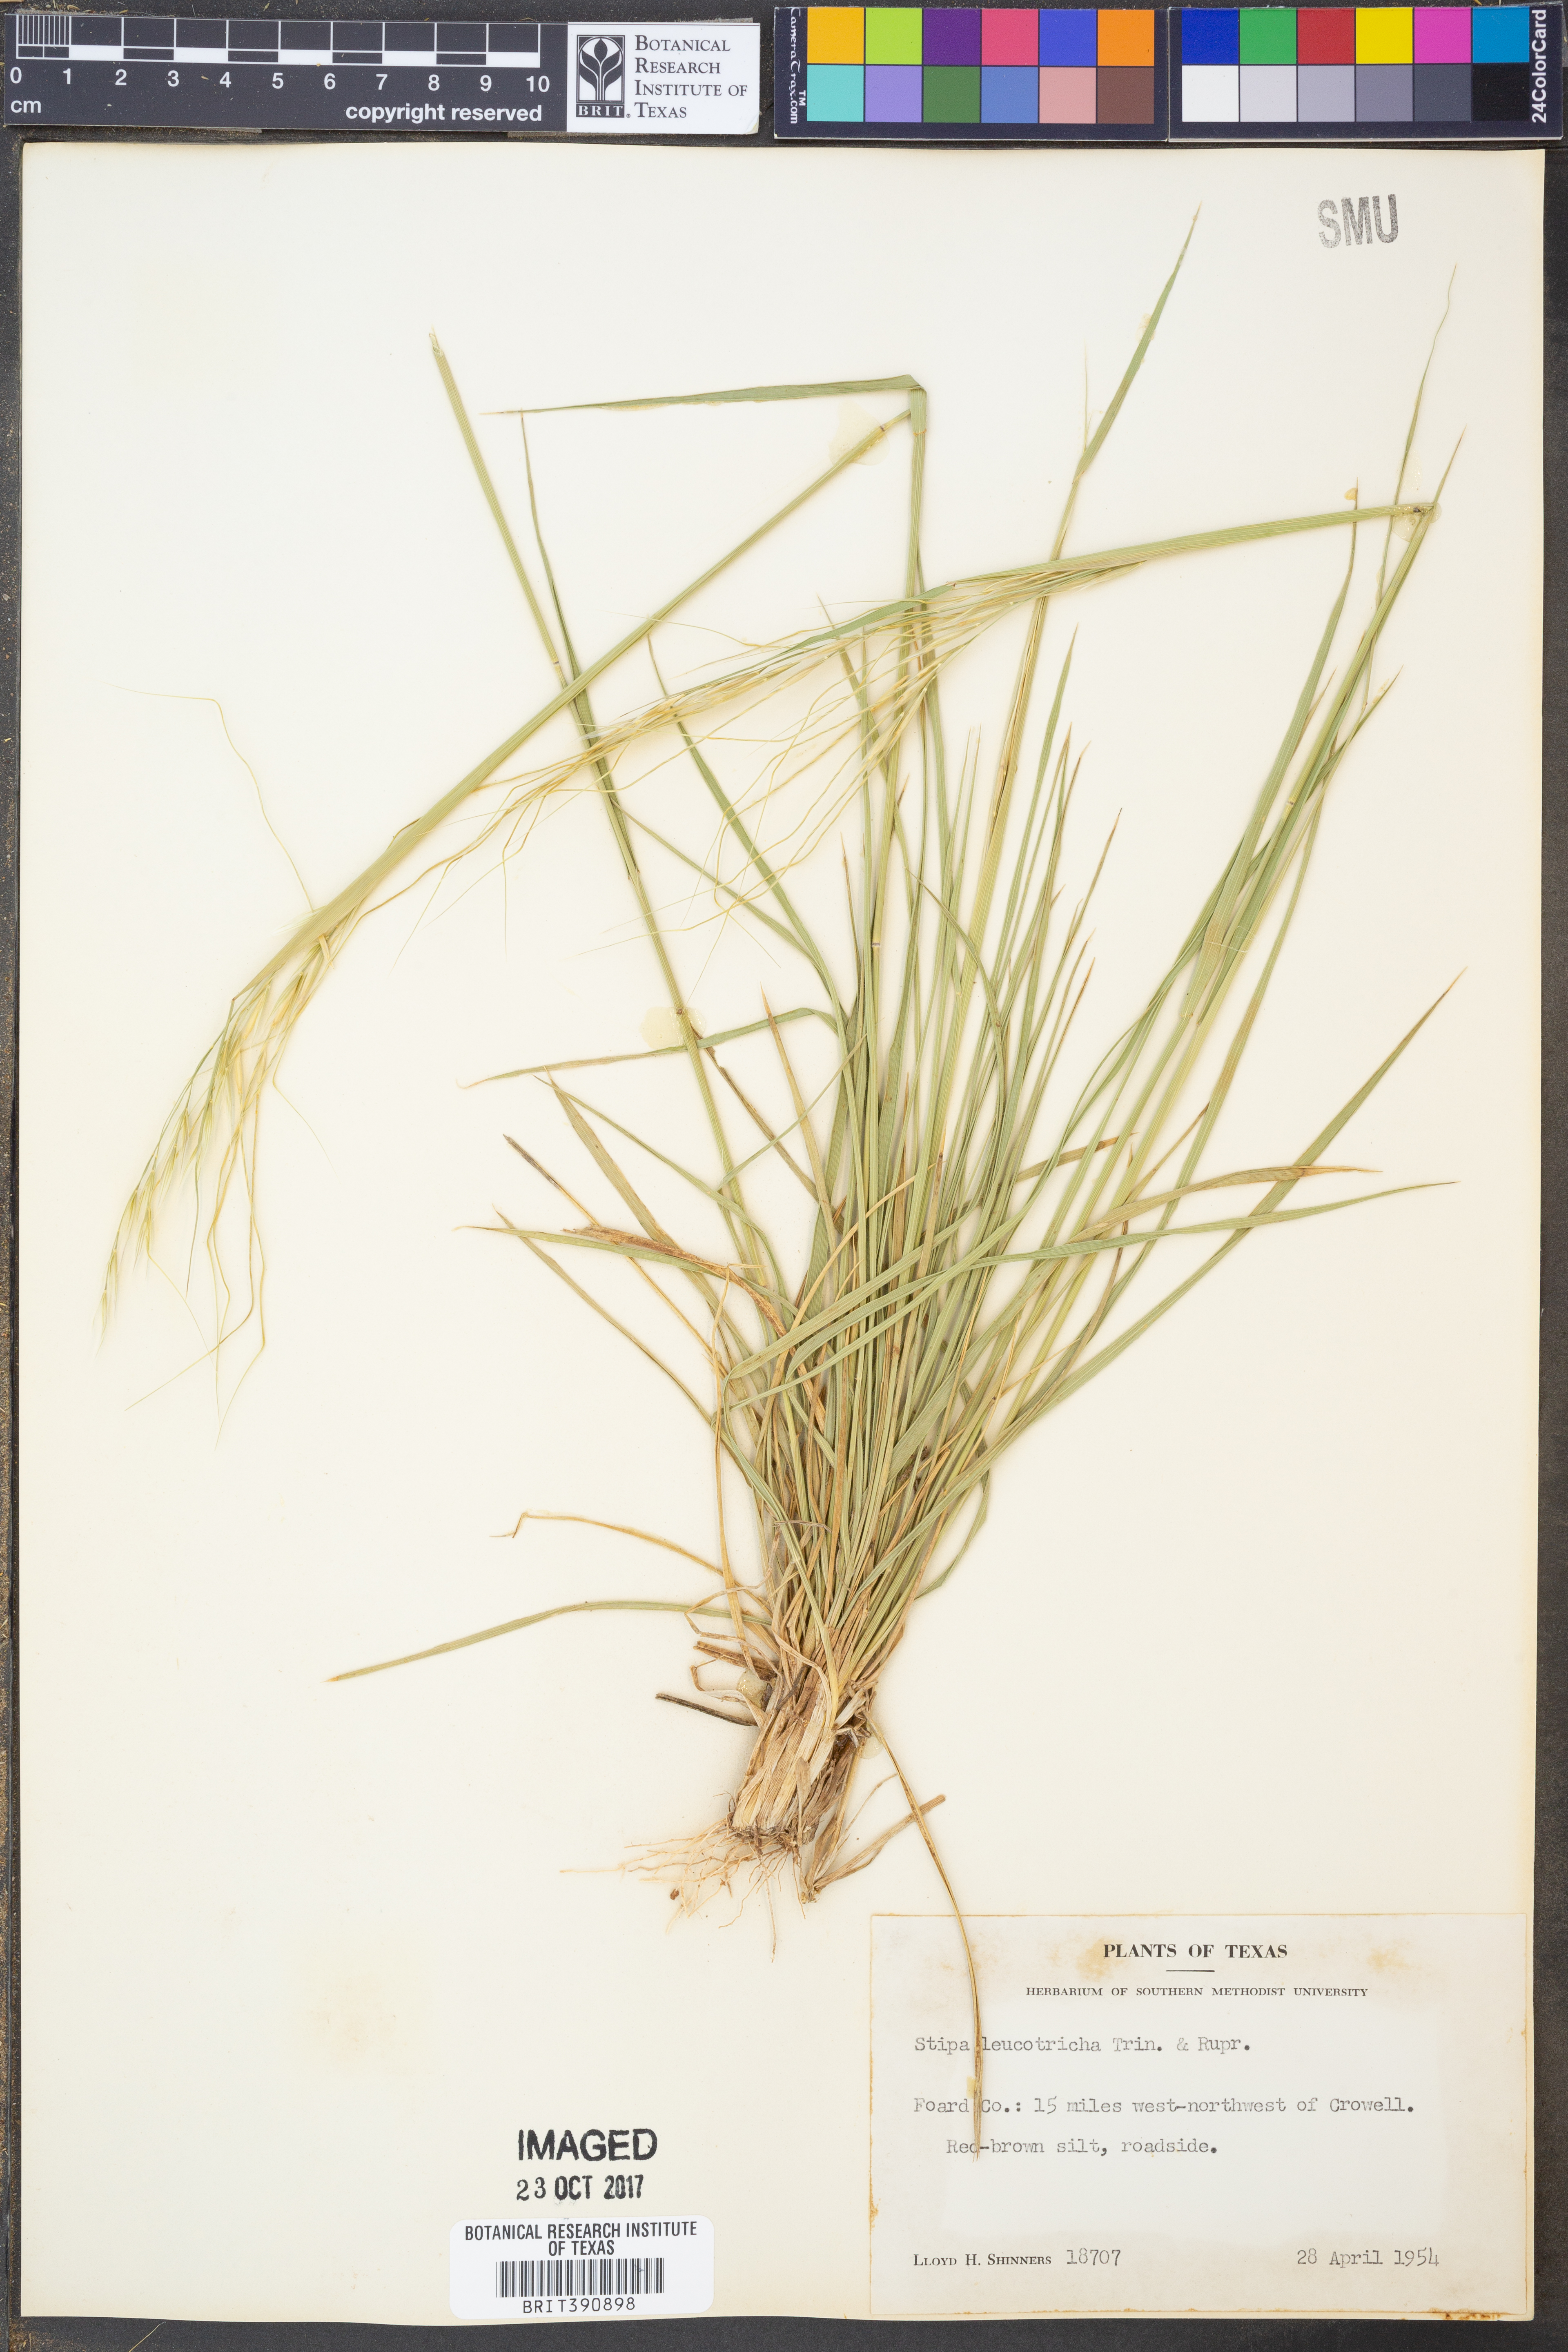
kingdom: Plantae
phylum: Tracheophyta
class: Liliopsida
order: Poales
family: Poaceae
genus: Nassella
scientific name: Nassella leucotricha
